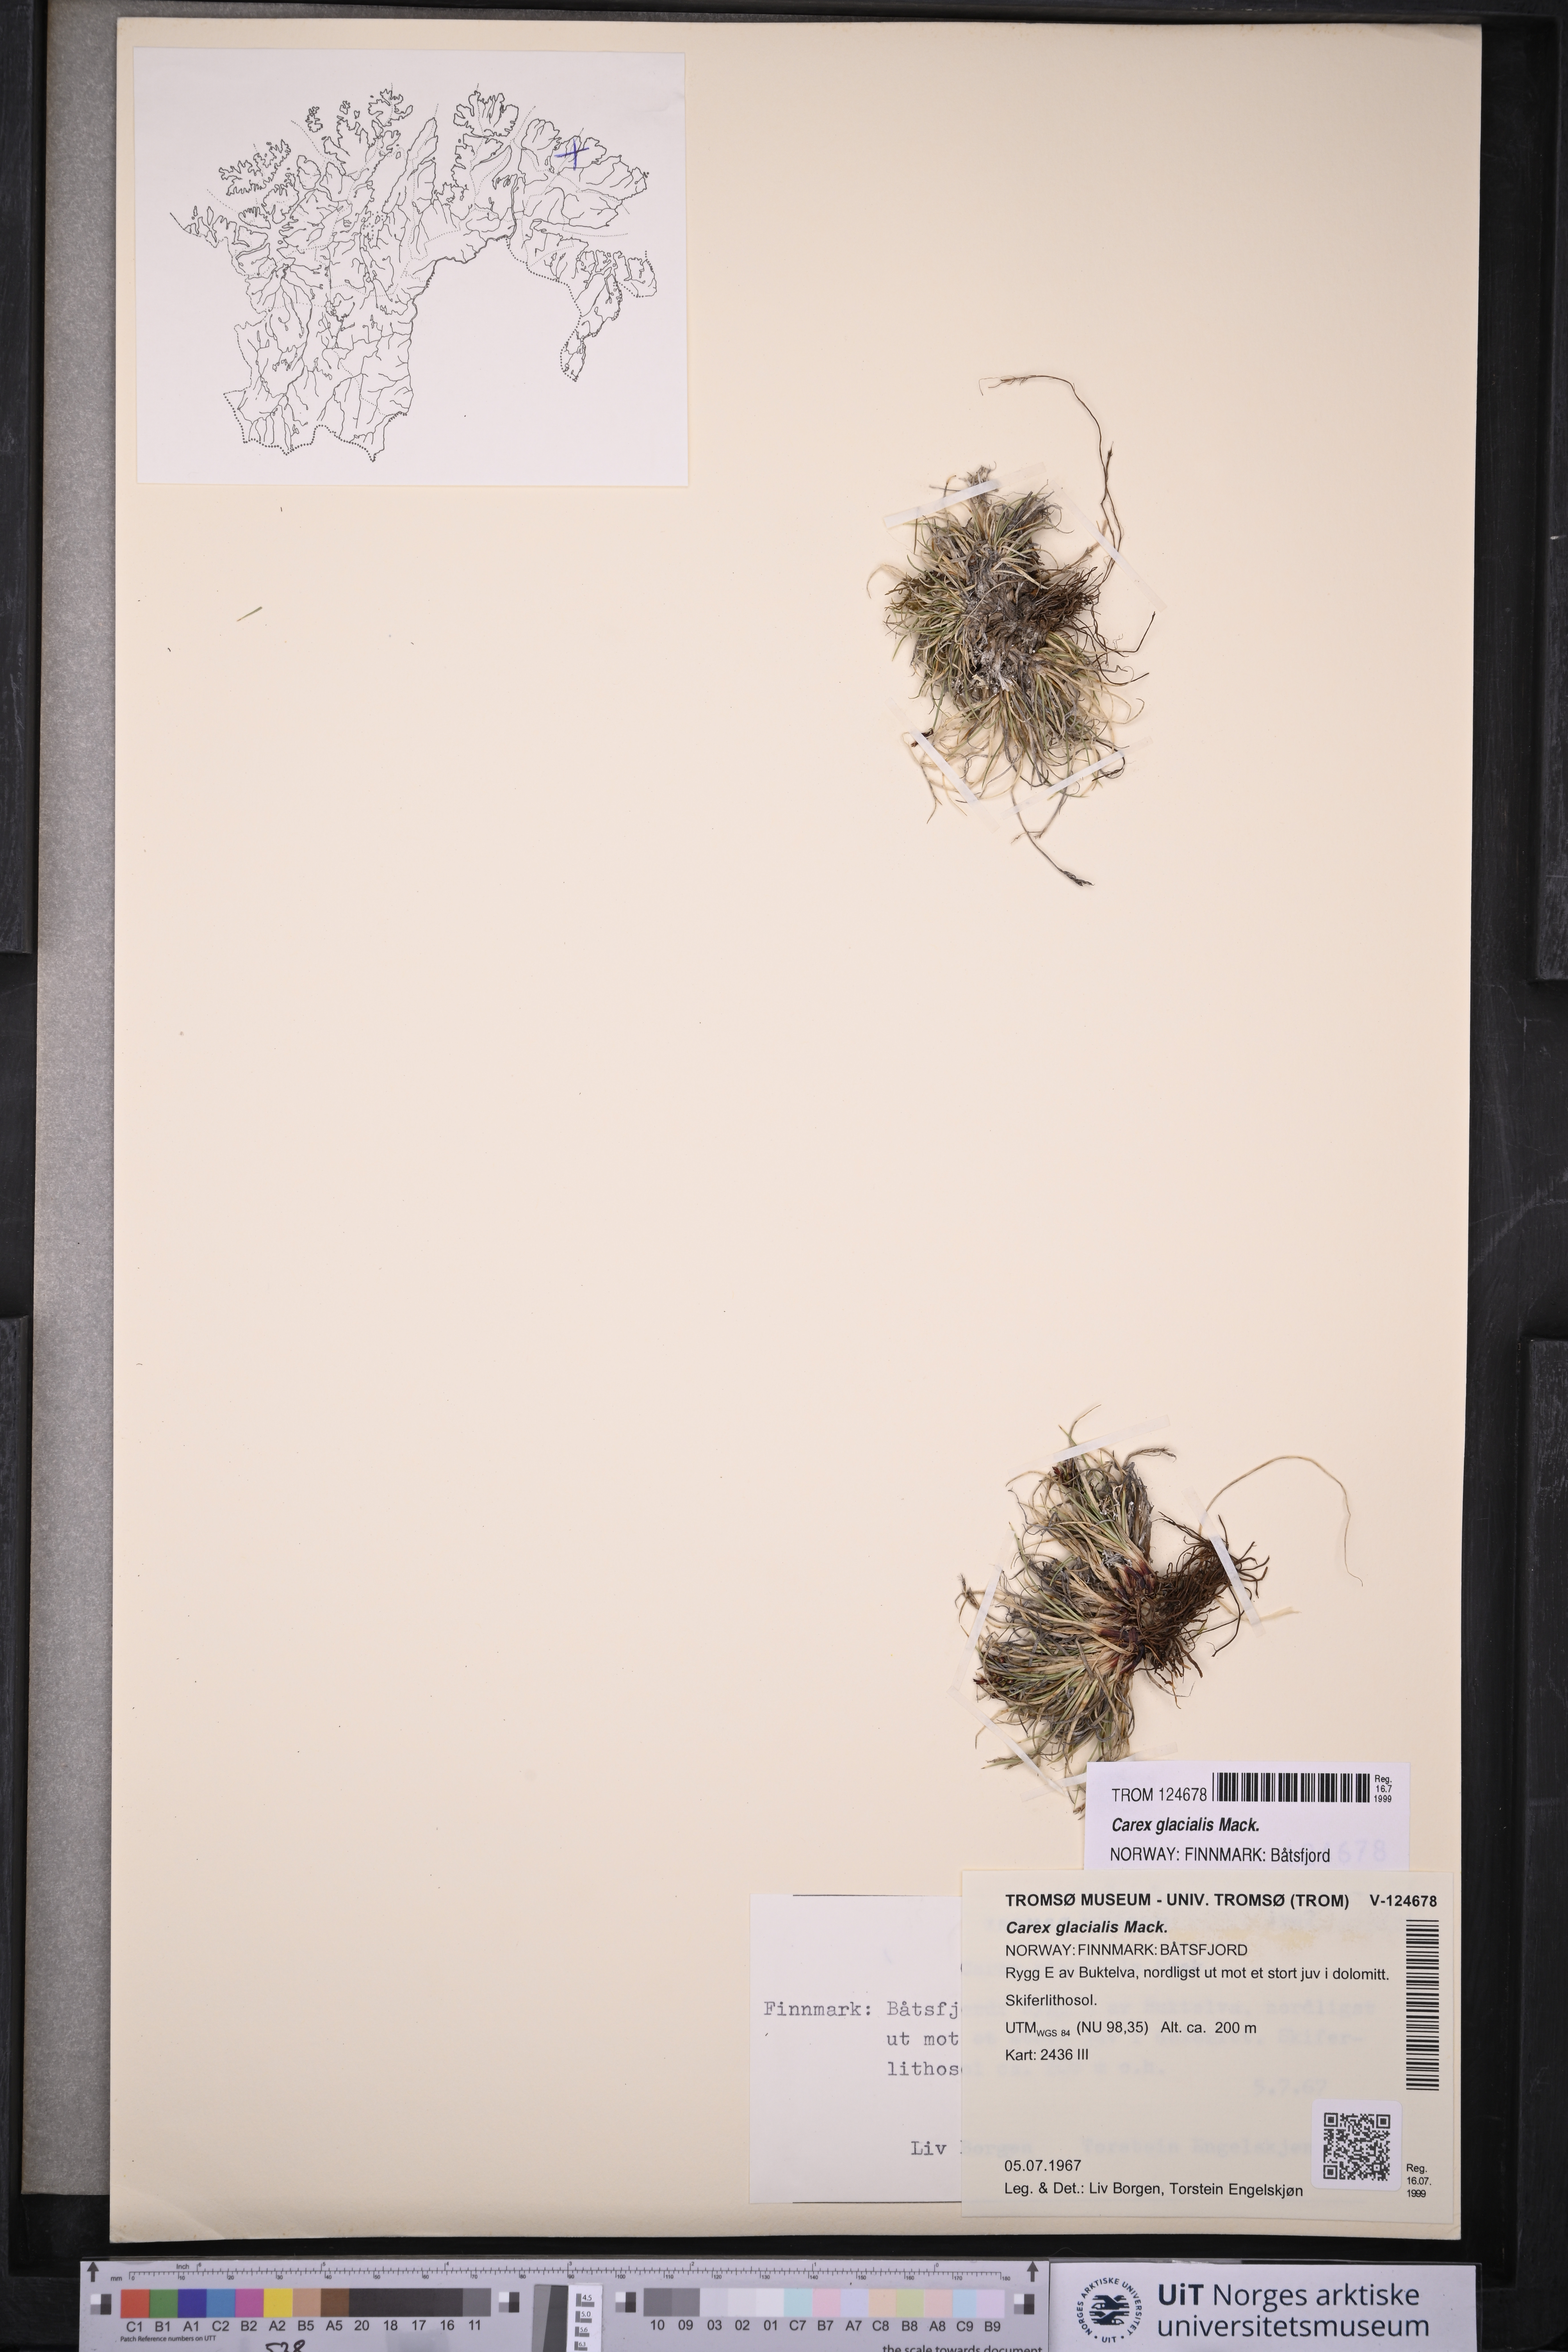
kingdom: Plantae
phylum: Tracheophyta
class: Liliopsida
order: Poales
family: Cyperaceae
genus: Carex
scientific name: Carex glacialis
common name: Newfoundland sedge
